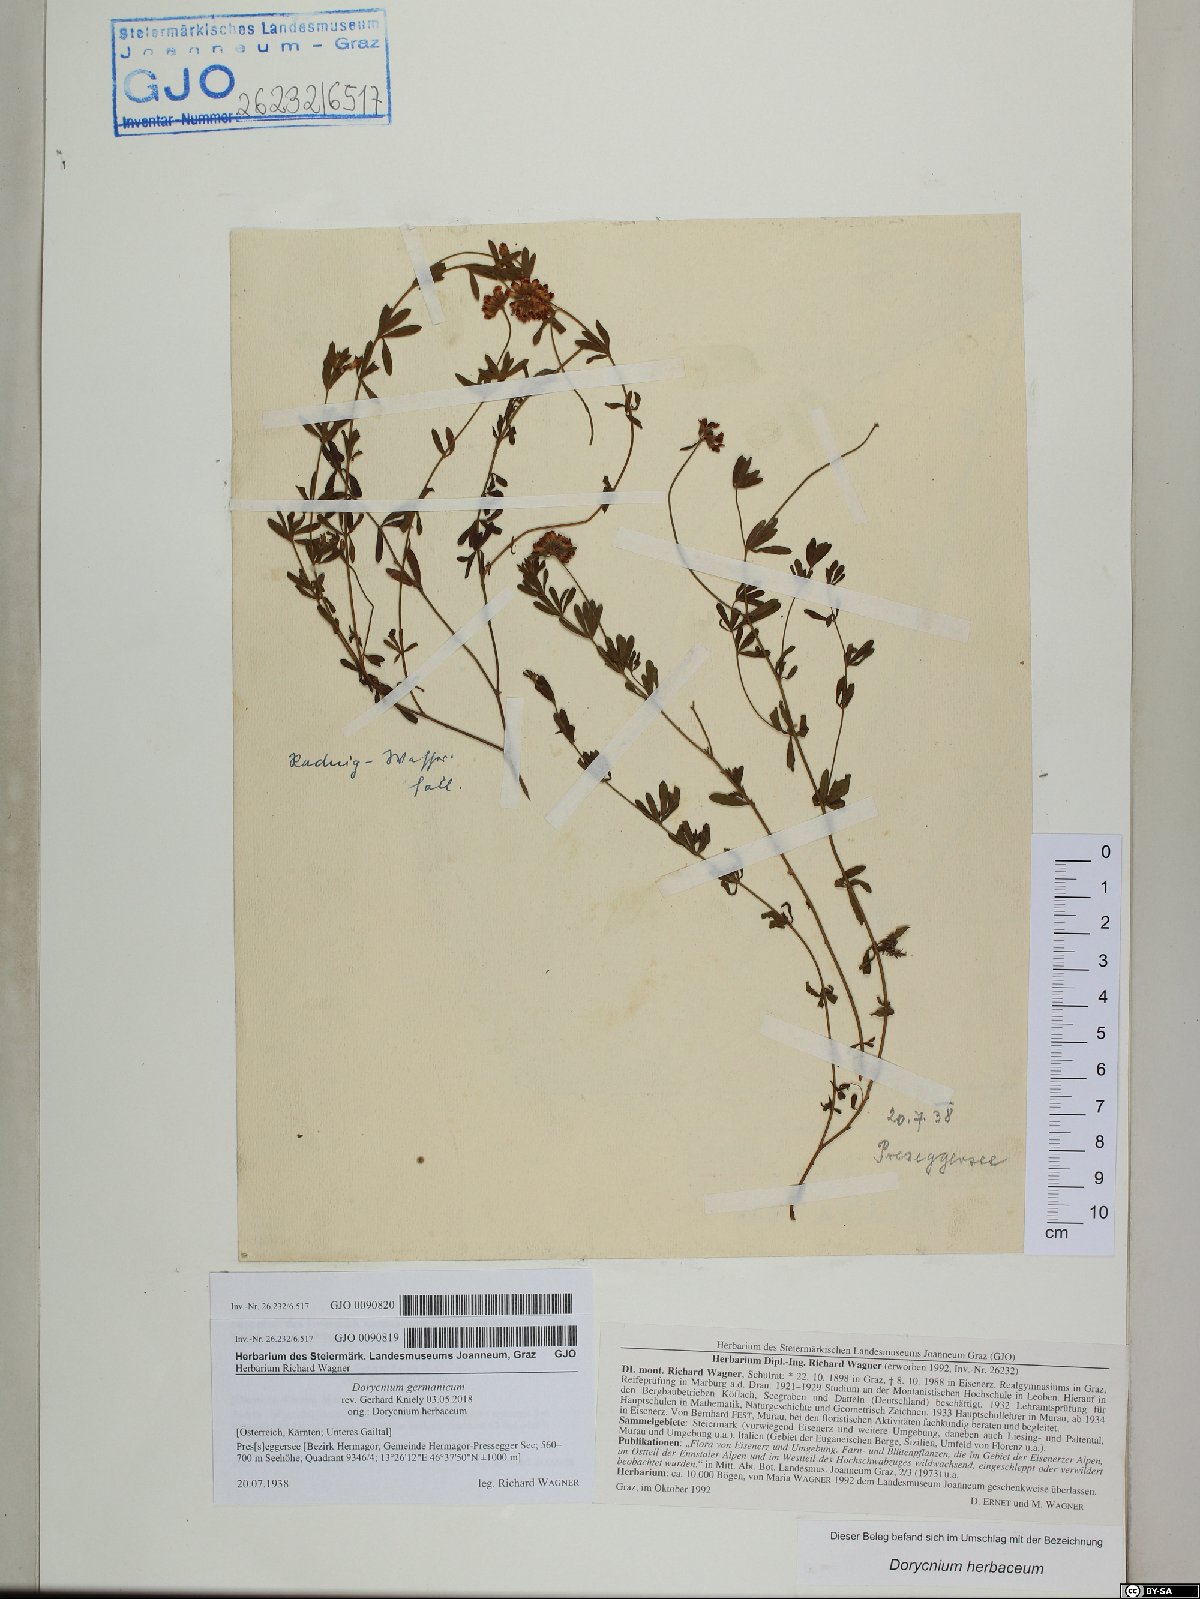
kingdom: Plantae
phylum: Tracheophyta
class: Magnoliopsida
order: Fabales
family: Fabaceae
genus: Lotus
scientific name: Lotus germanicus
